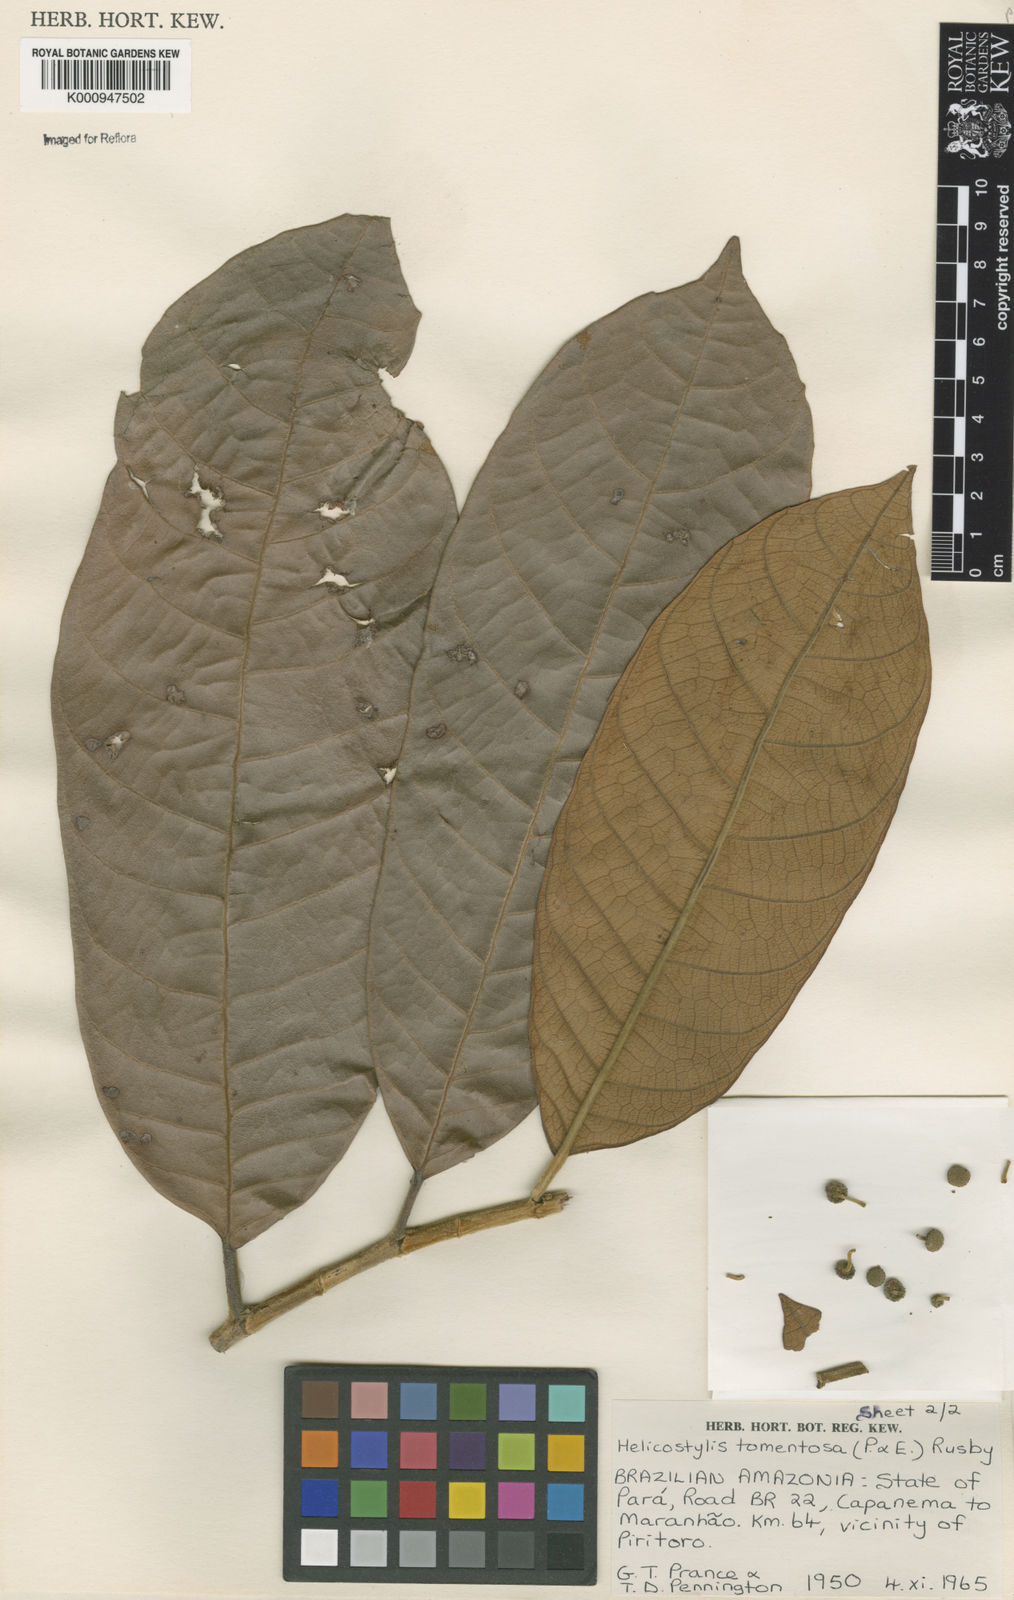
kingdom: Plantae
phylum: Tracheophyta
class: Magnoliopsida
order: Rosales
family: Moraceae
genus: Helicostylis
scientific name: Helicostylis
